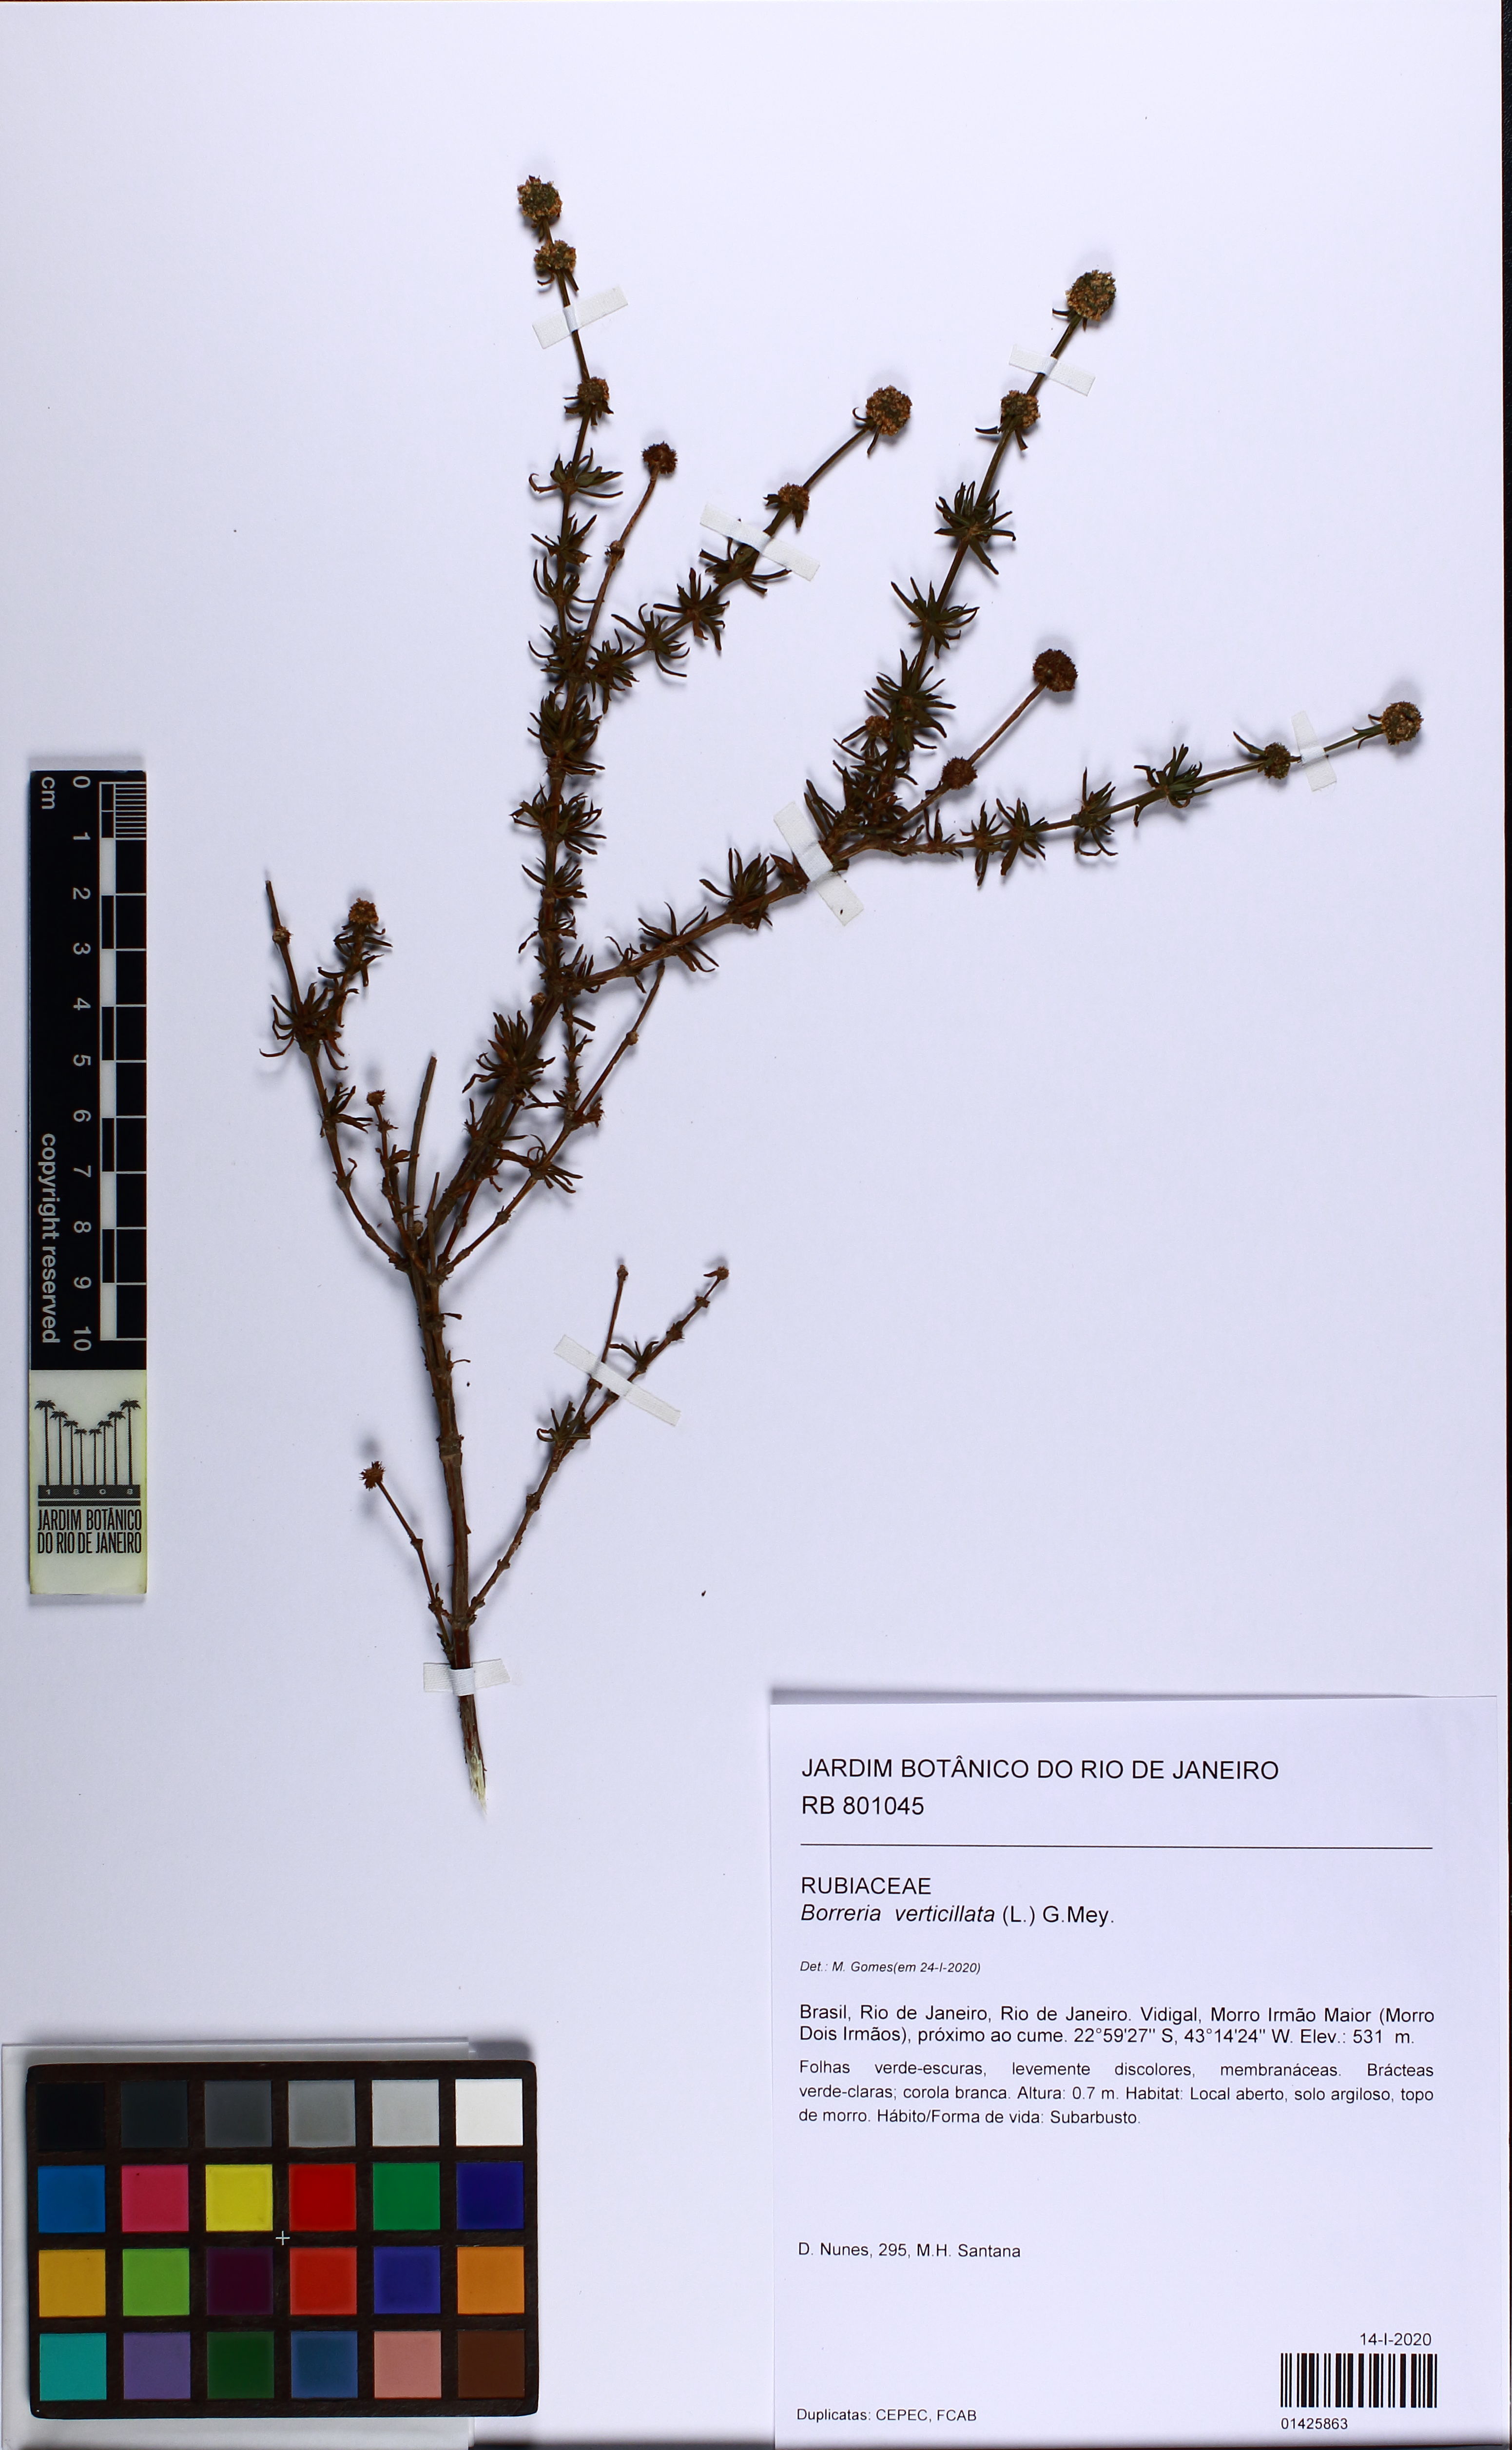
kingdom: Plantae
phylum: Tracheophyta
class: Magnoliopsida
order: Gentianales
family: Rubiaceae
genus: Spermacoce
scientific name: Spermacoce verticillata
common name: Shrubby false buttonweed
